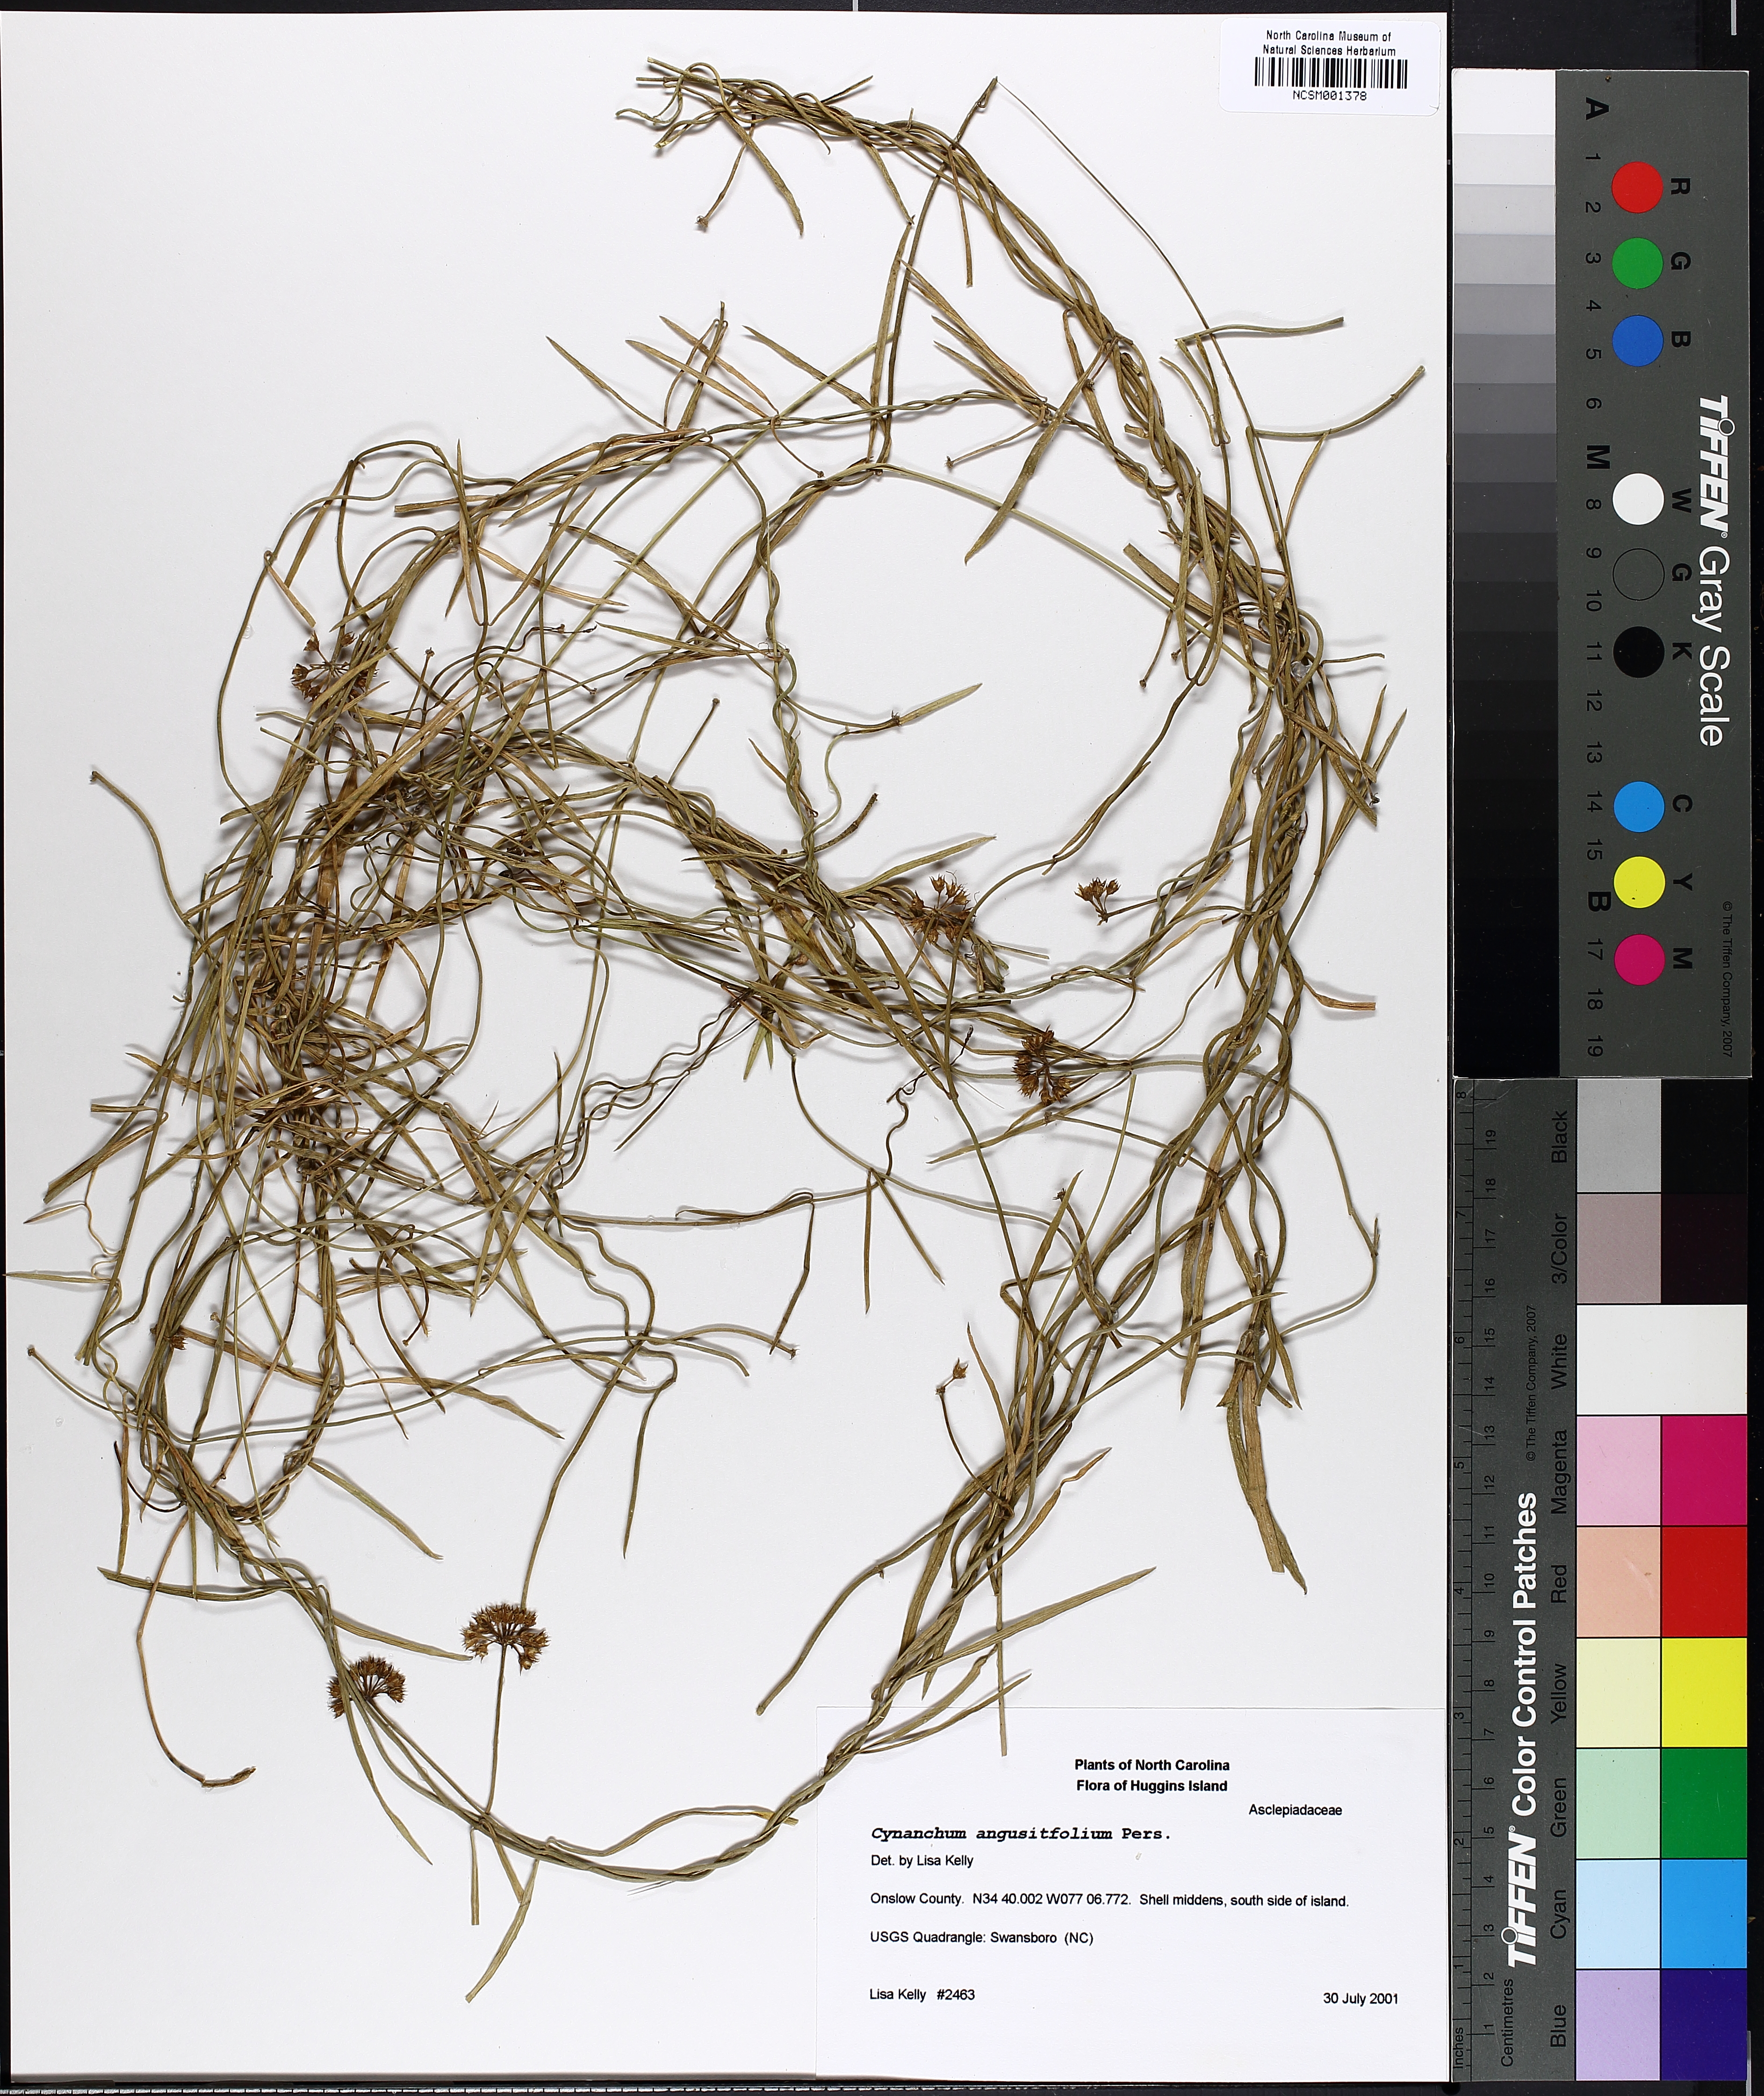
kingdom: Plantae
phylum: Tracheophyta
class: Magnoliopsida
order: Gentianales
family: Apocynaceae
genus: Pattalias
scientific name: Pattalias palustris
